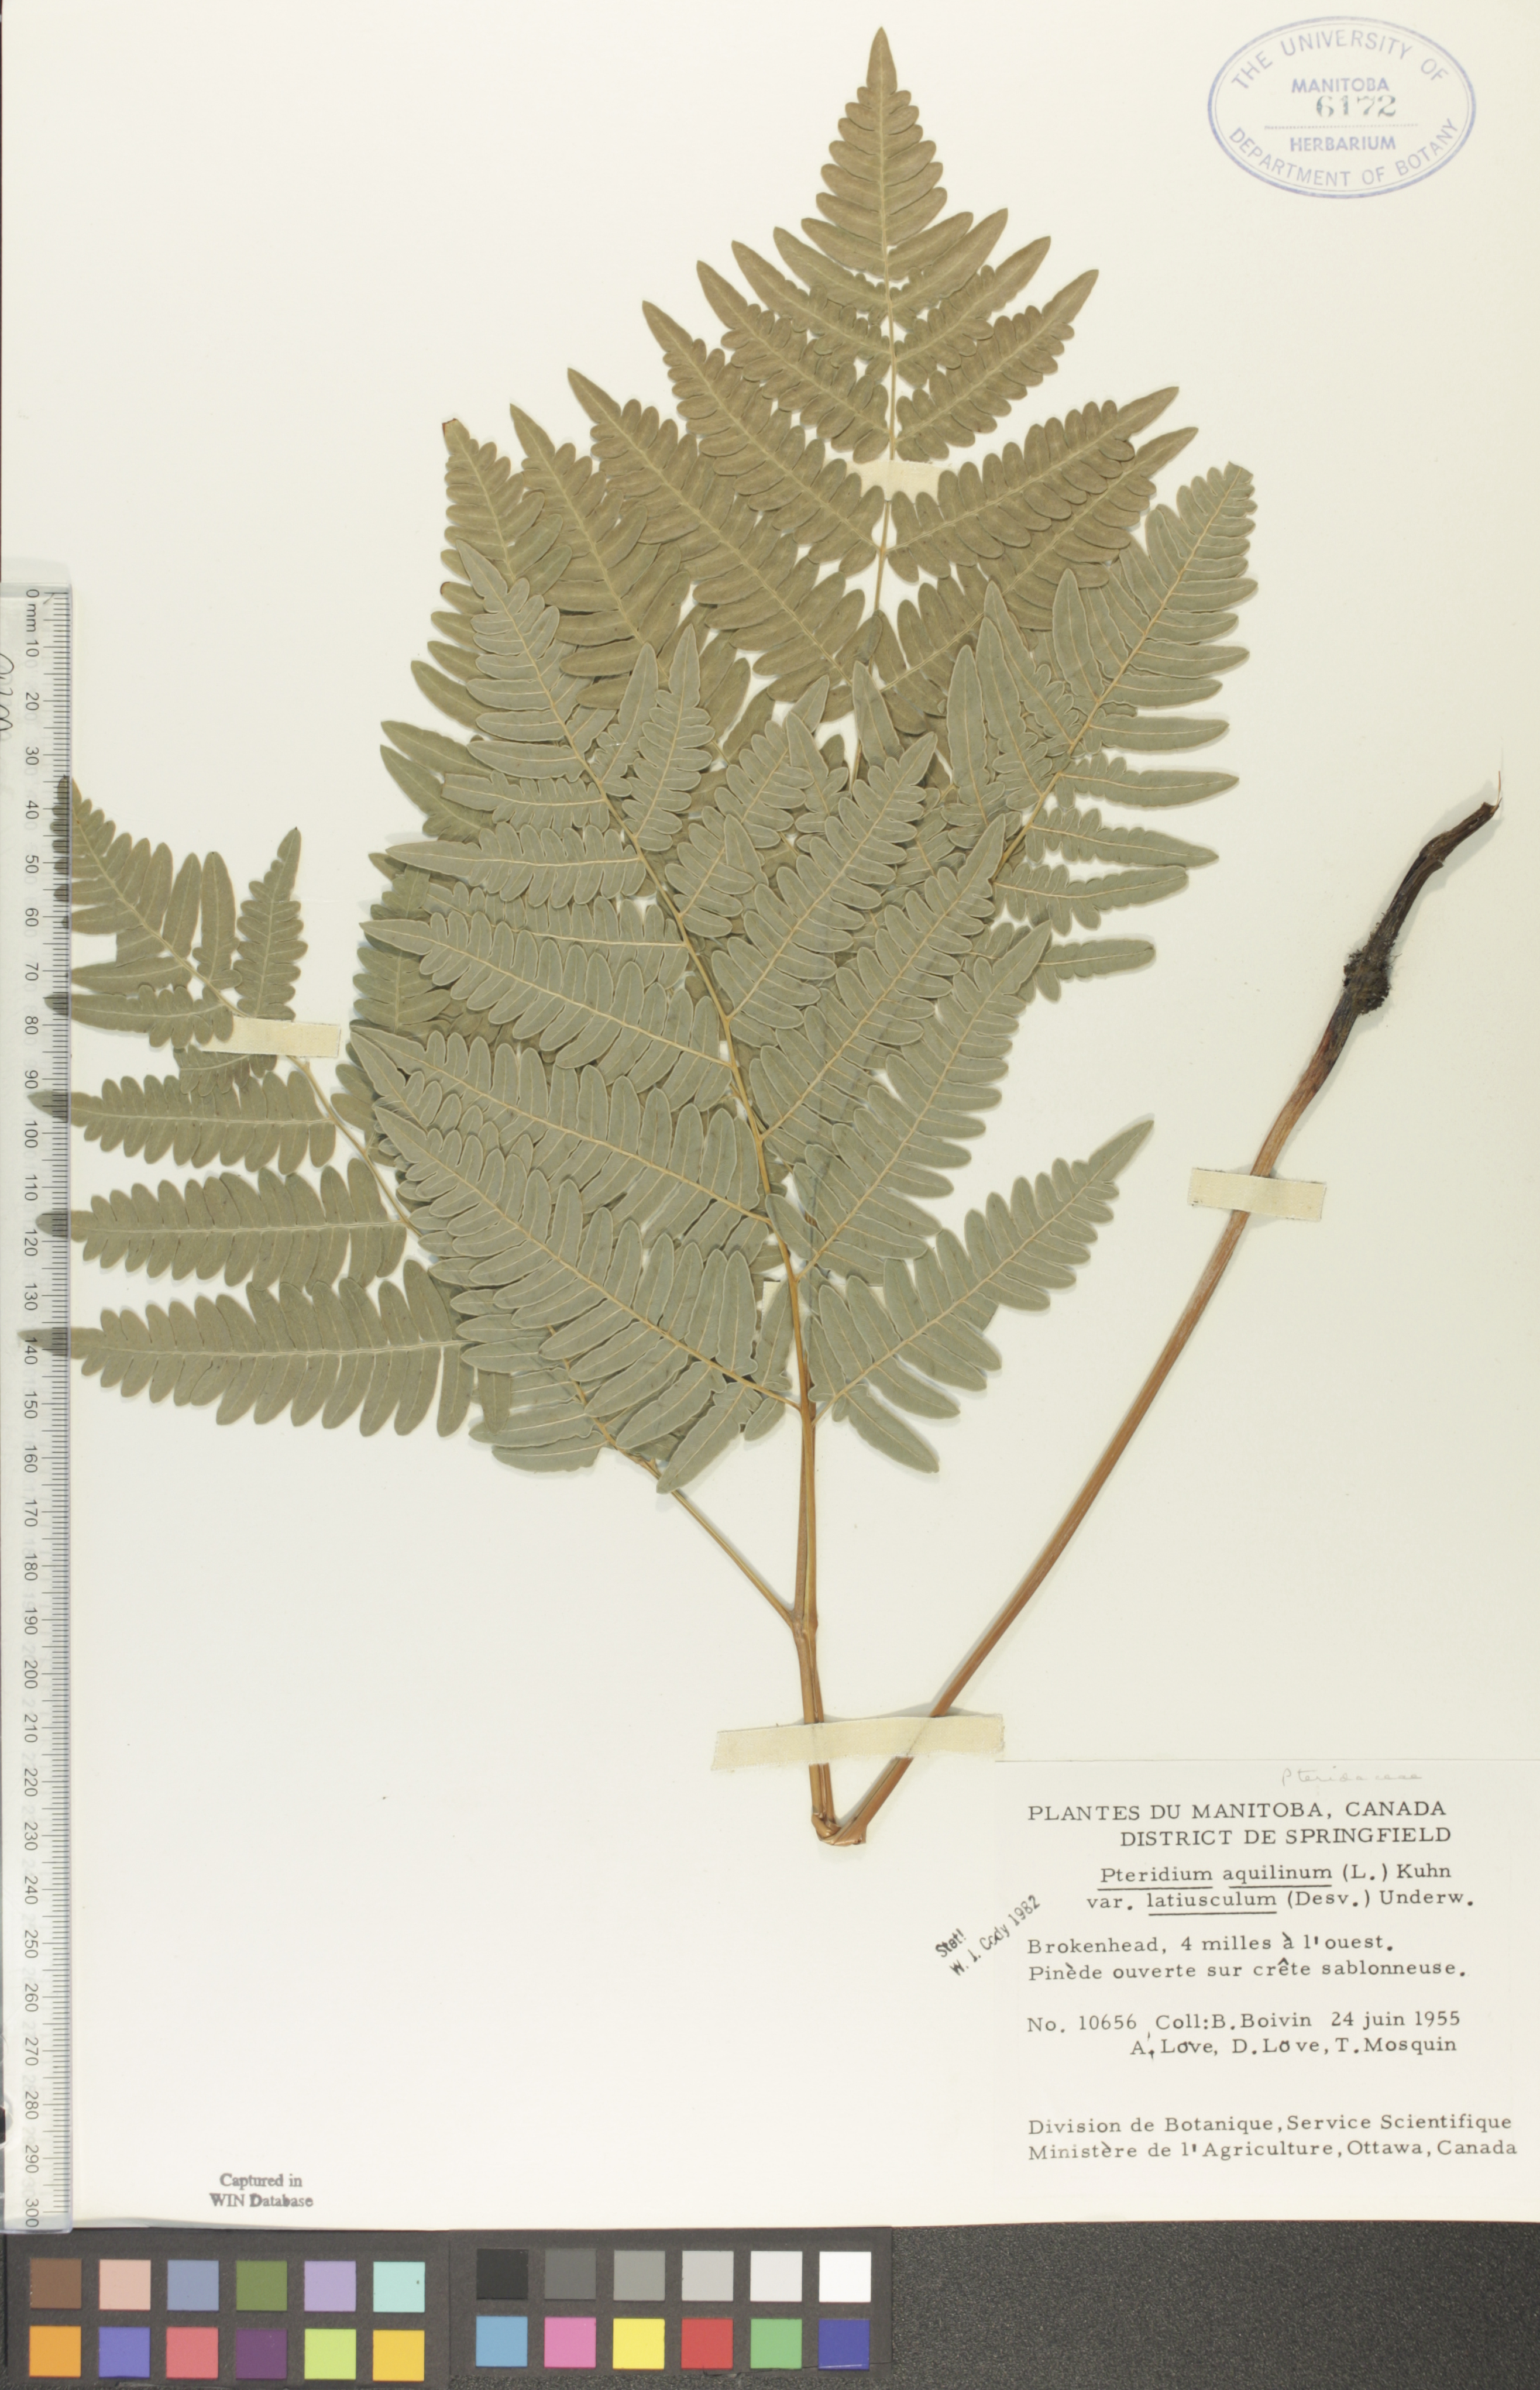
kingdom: Plantae
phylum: Tracheophyta
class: Polypodiopsida
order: Polypodiales
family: Dennstaedtiaceae
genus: Pteridium
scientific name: Pteridium aquilinum
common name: Bracken
